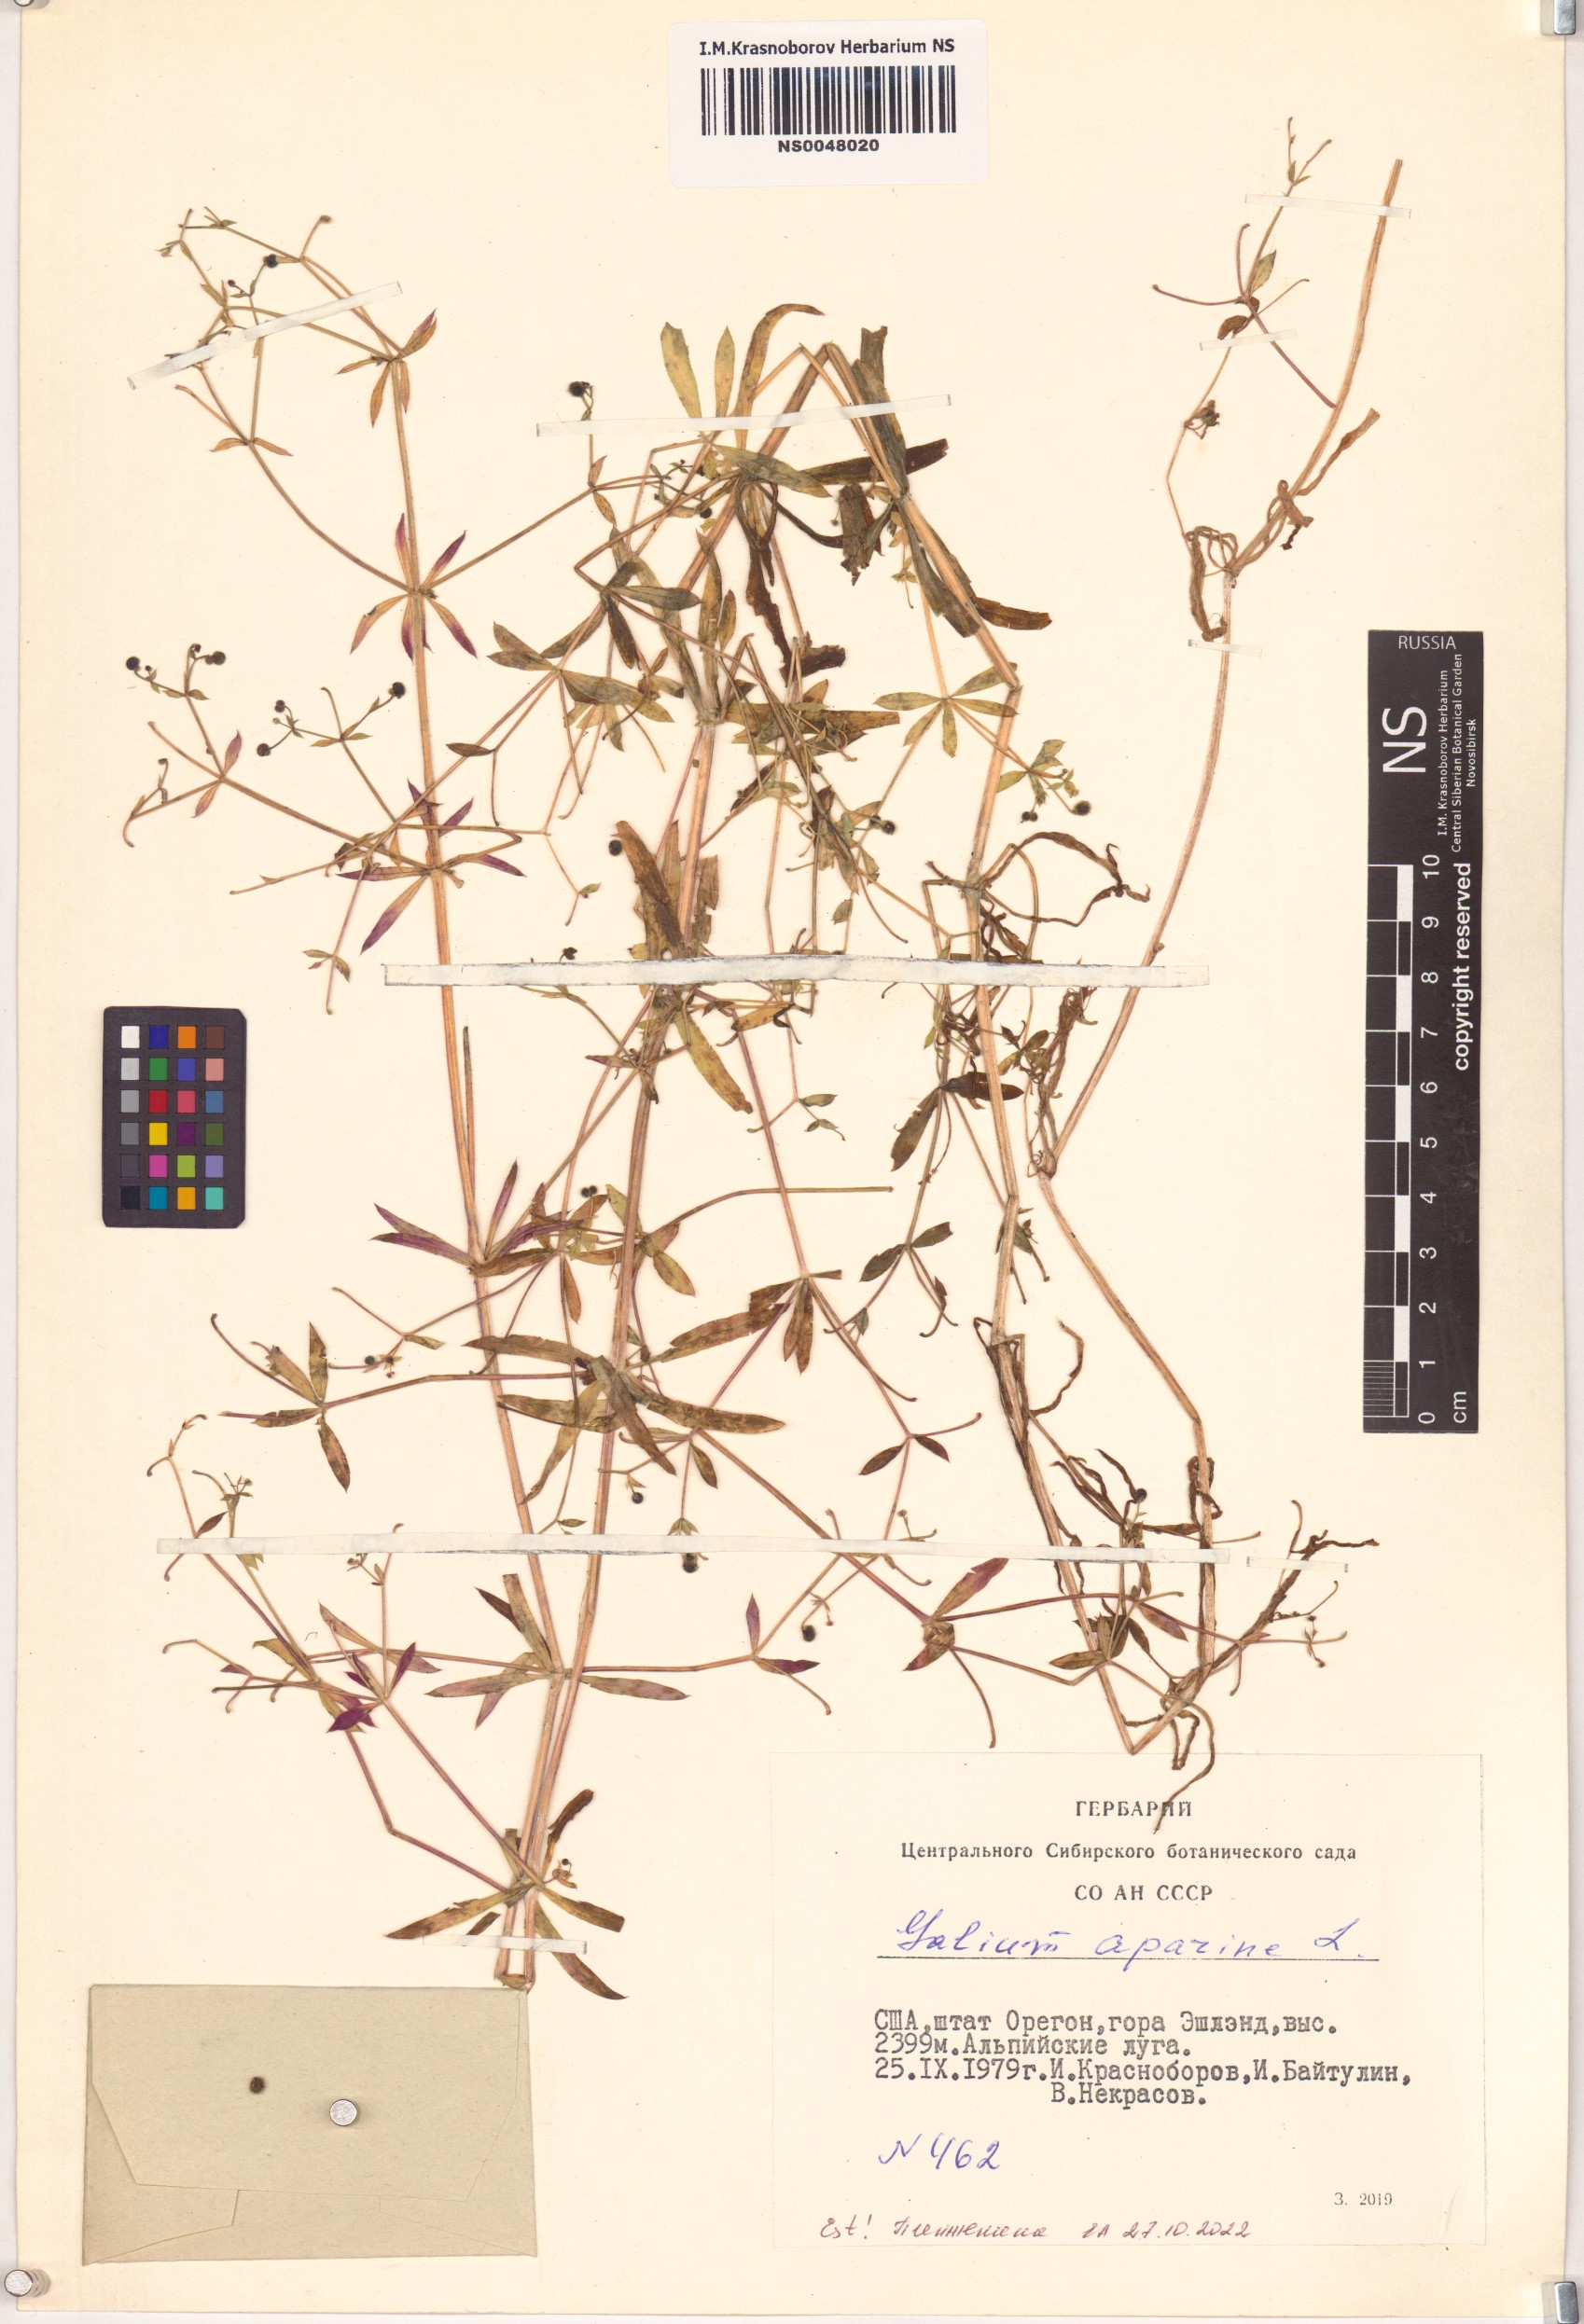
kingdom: Plantae
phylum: Tracheophyta
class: Magnoliopsida
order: Gentianales
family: Rubiaceae
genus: Galium
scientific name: Galium aparine
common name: Cleavers
